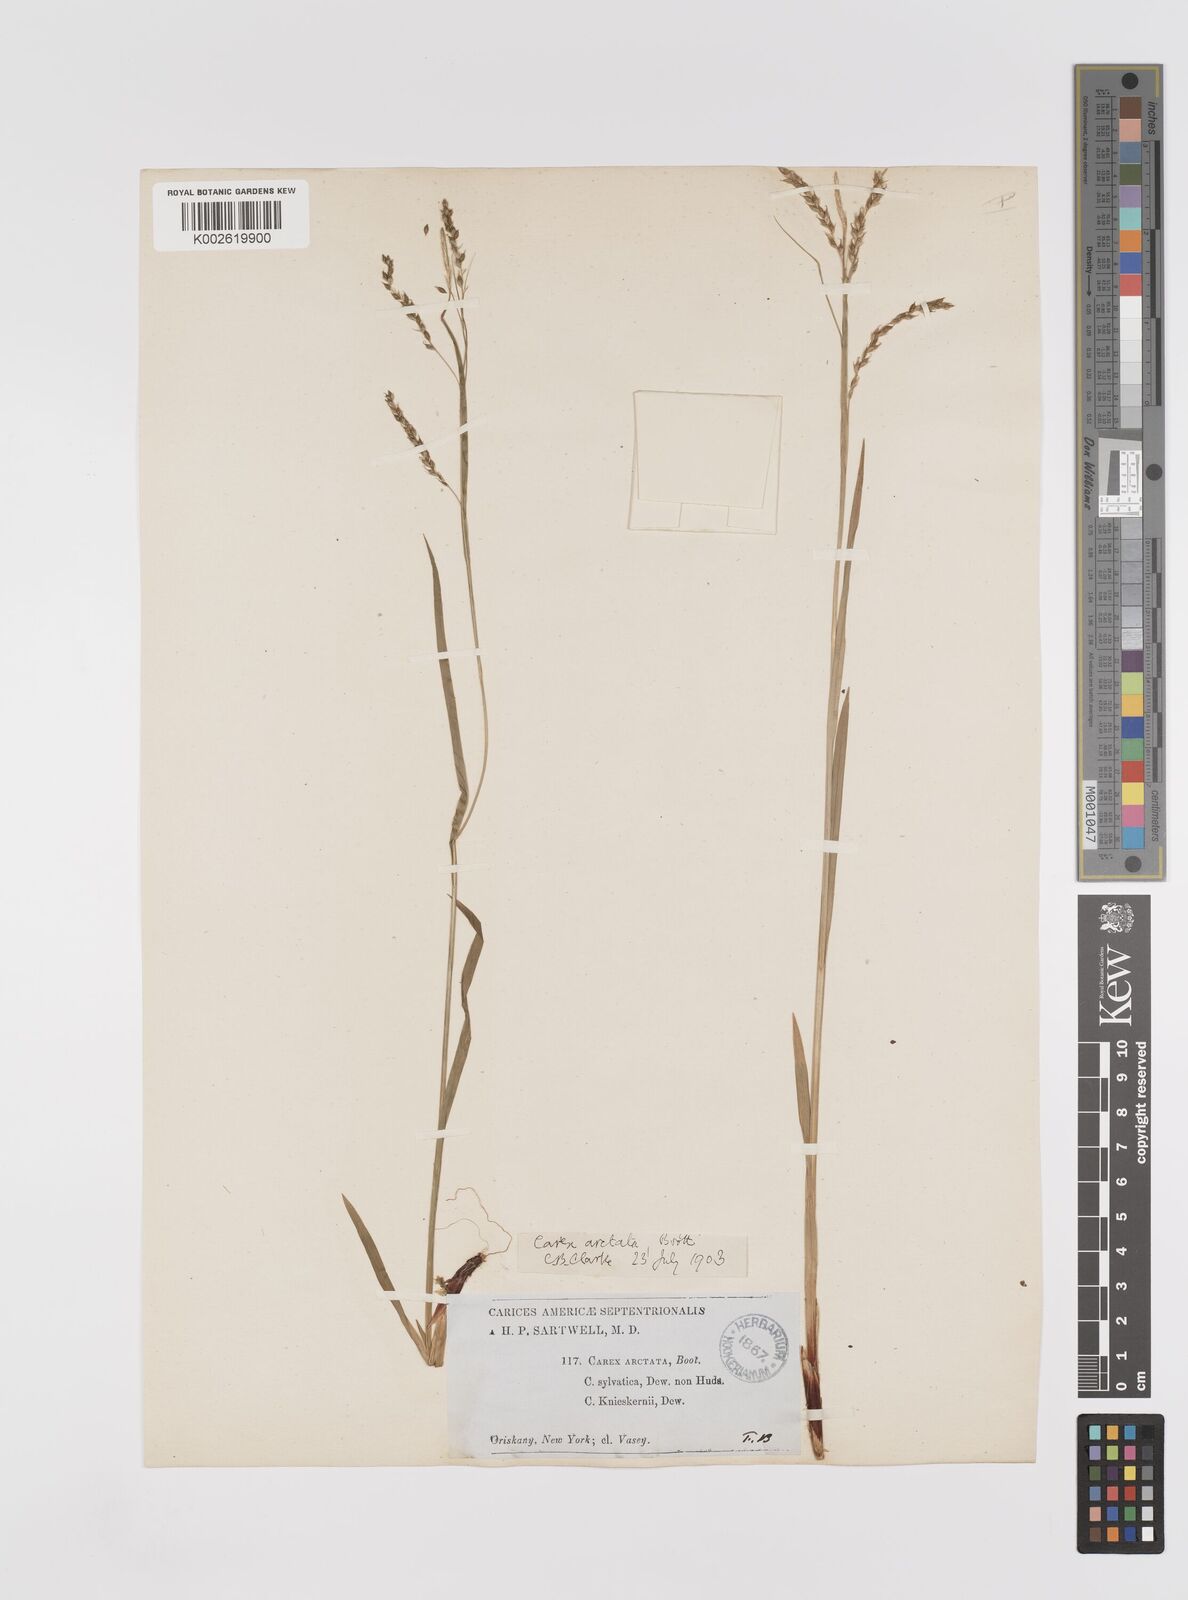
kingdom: Plantae
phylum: Tracheophyta
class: Liliopsida
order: Poales
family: Cyperaceae
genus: Carex
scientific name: Carex arctata
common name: Black sedge
